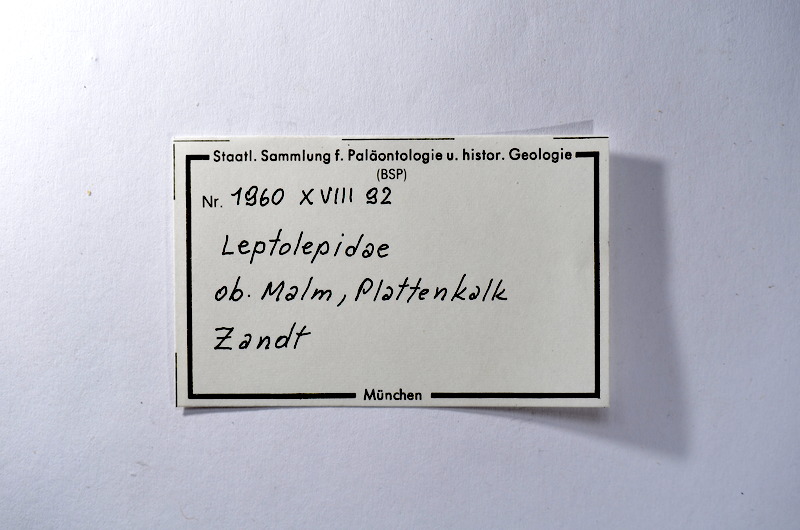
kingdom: Animalia
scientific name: Animalia
